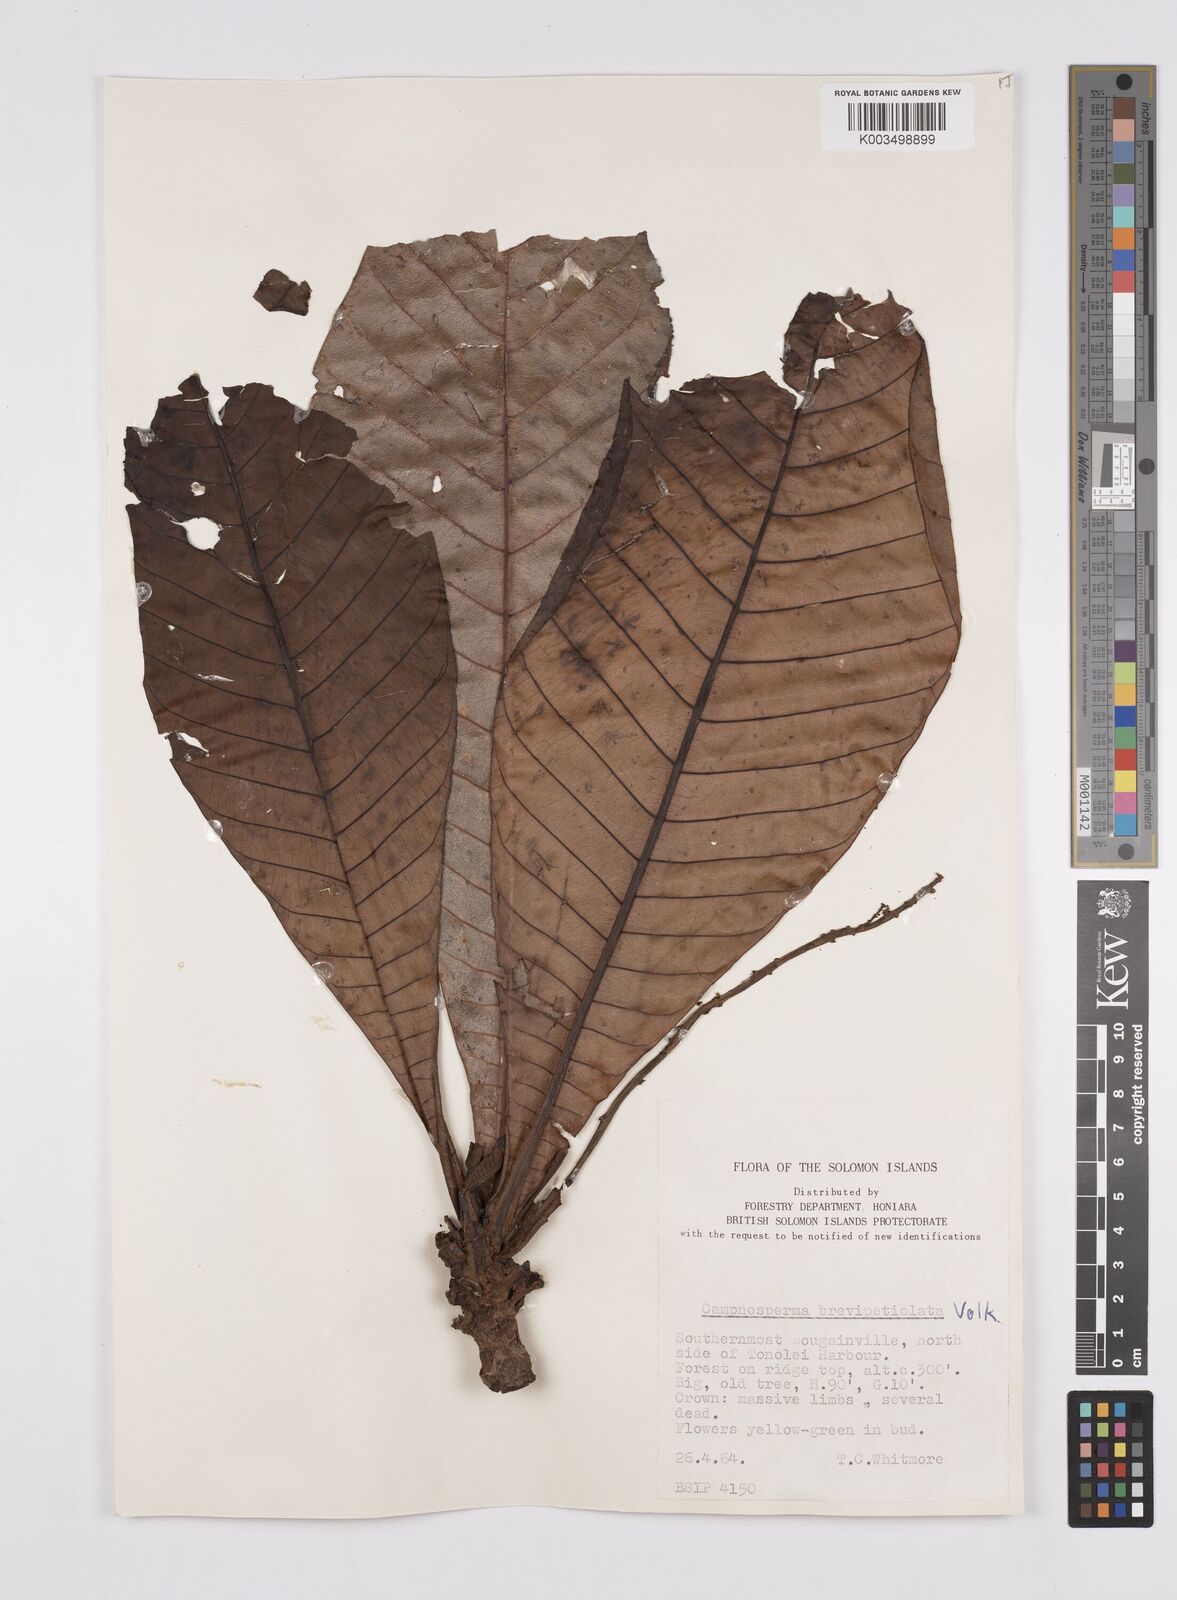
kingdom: Plantae
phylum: Tracheophyta
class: Magnoliopsida
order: Sapindales
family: Anacardiaceae
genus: Campnosperma
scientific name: Campnosperma brevipetiolatum
